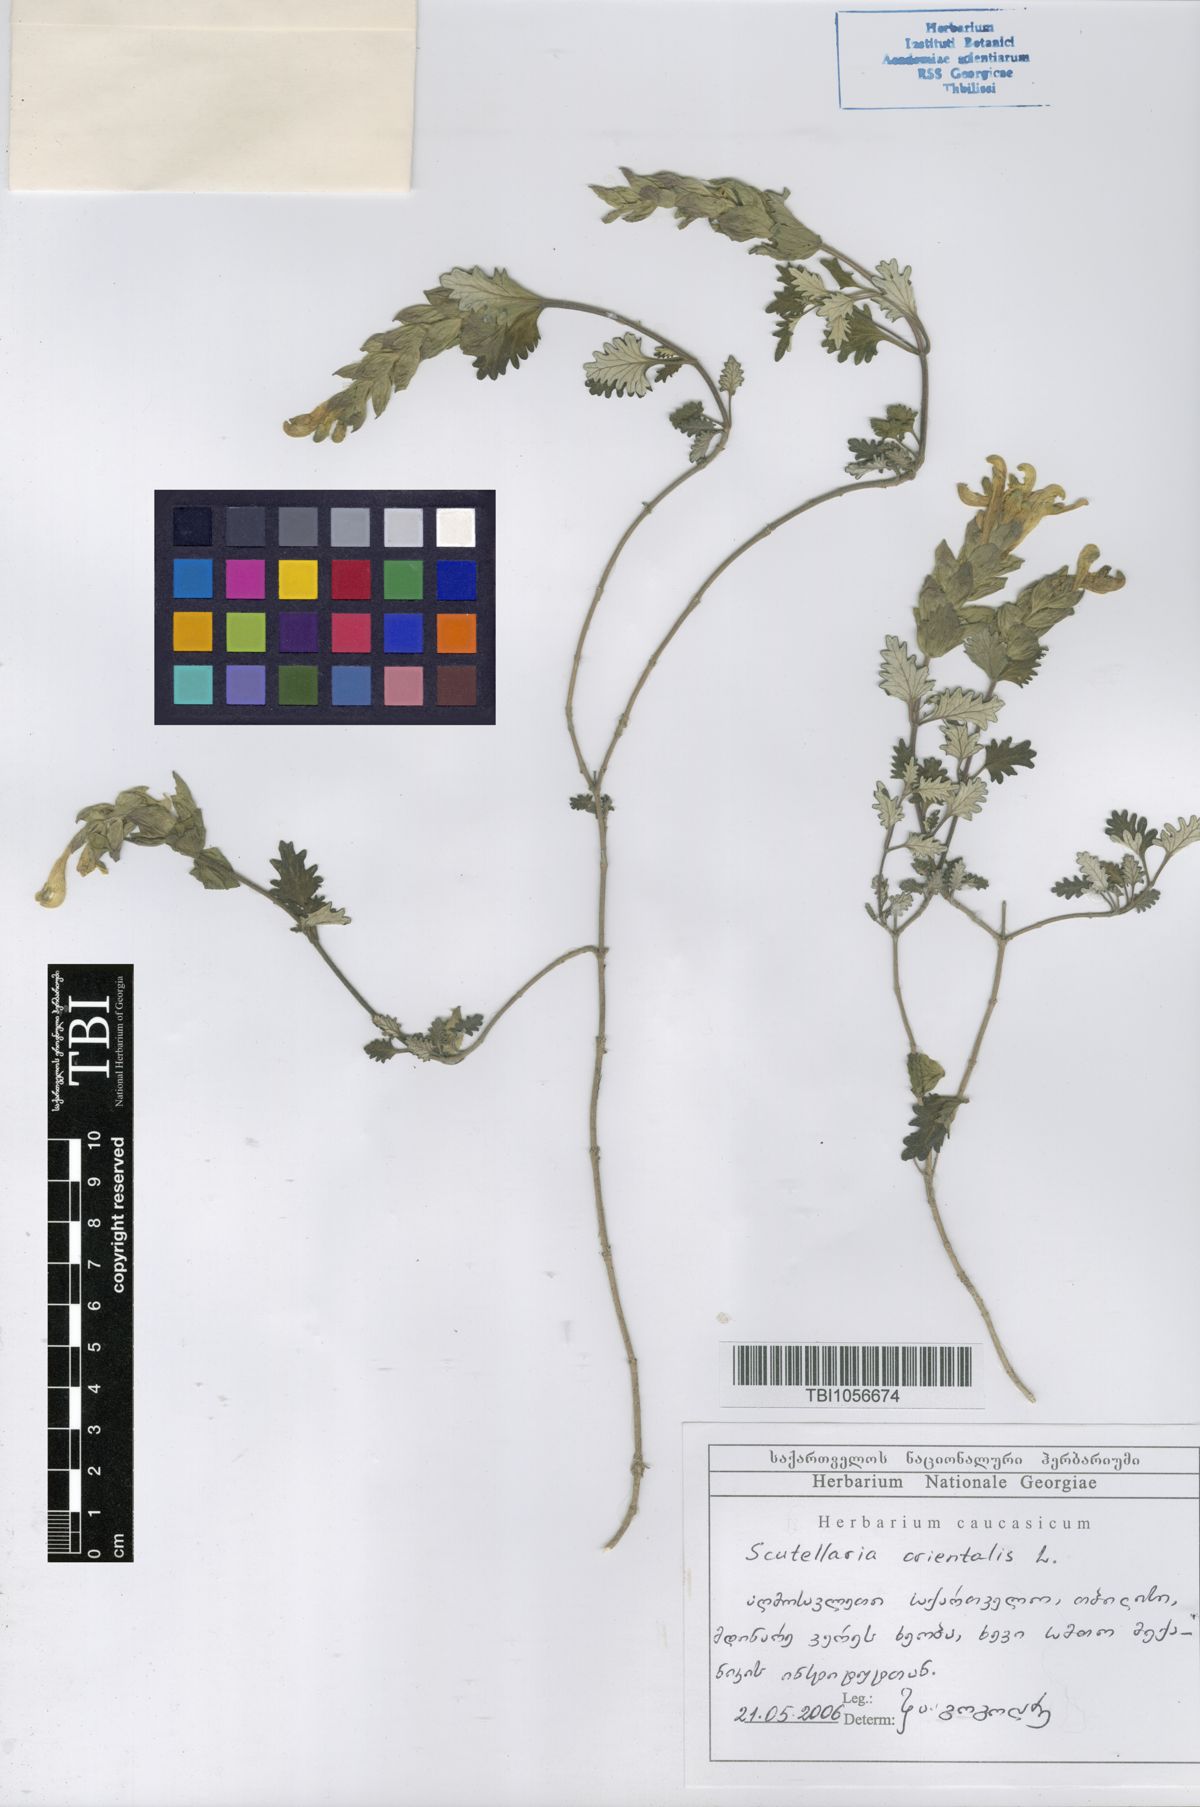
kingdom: Plantae
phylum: Tracheophyta
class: Magnoliopsida
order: Lamiales
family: Lamiaceae
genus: Scutellaria
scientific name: Scutellaria orientalis
